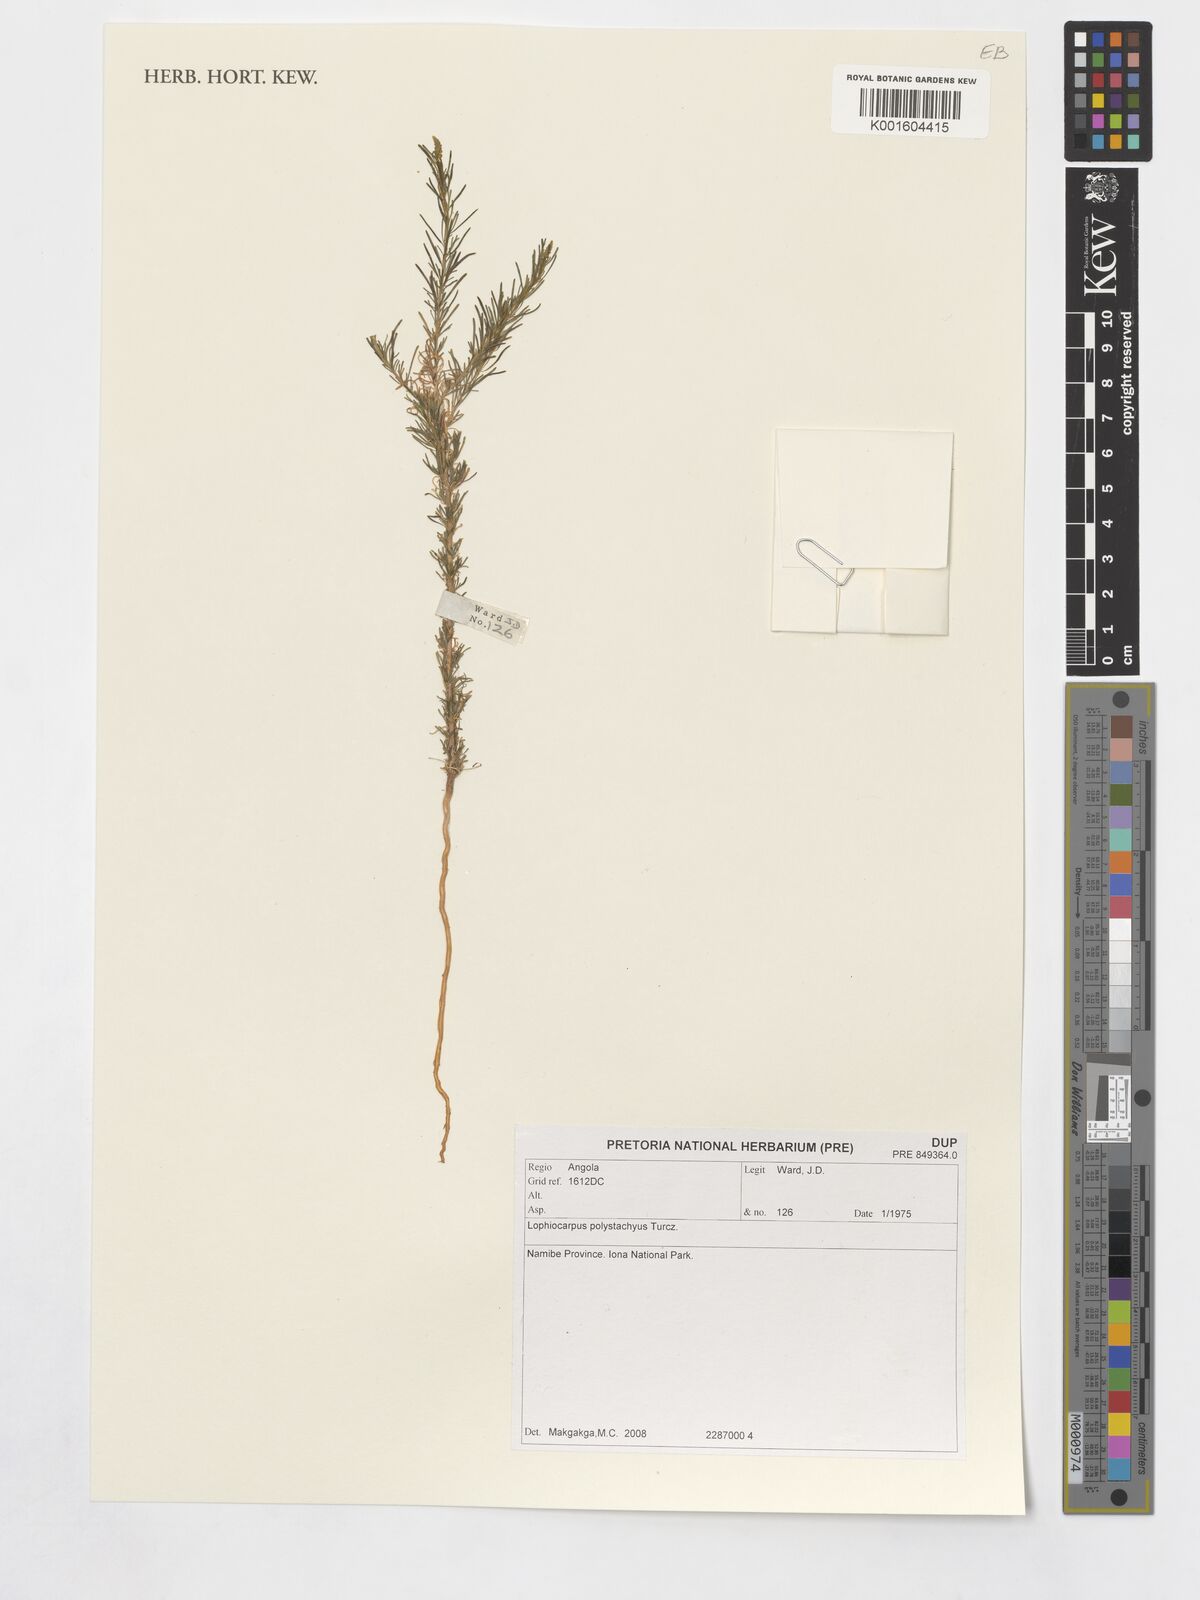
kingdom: Plantae
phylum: Tracheophyta
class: Magnoliopsida
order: Caryophyllales
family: Lophiocarpaceae
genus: Lophiocarpus
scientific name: Lophiocarpus polystachyus
